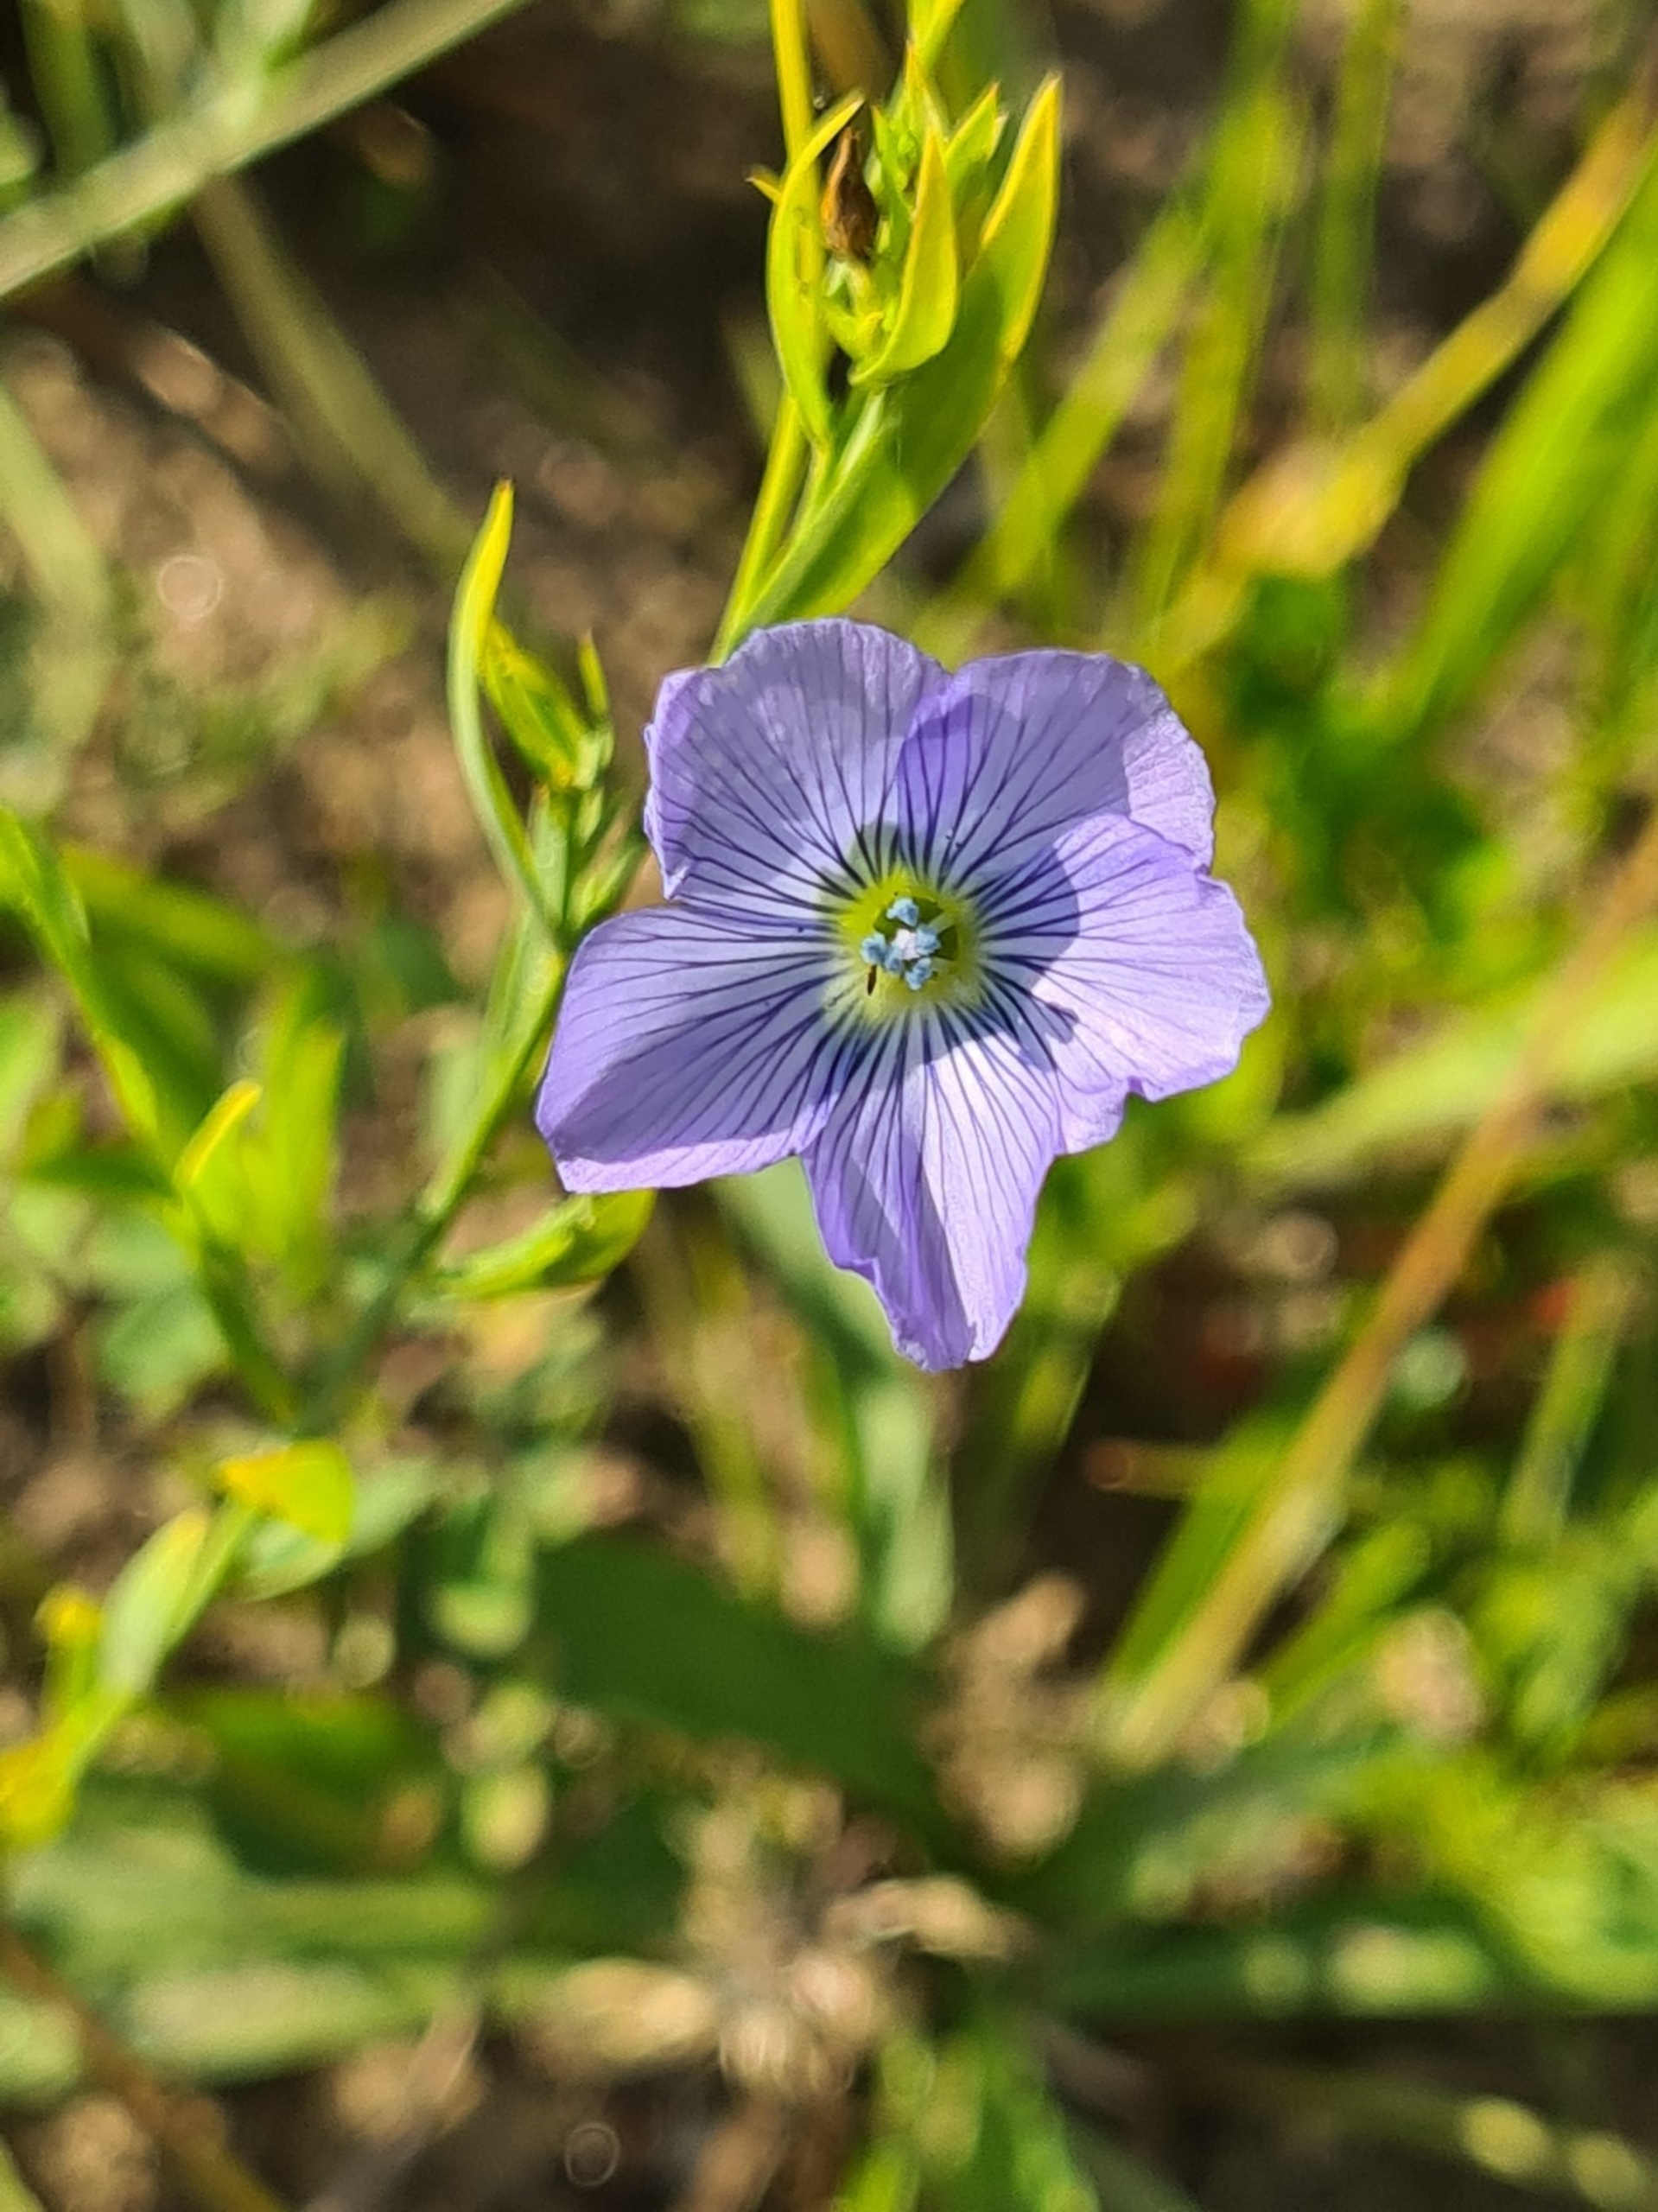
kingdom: Plantae
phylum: Tracheophyta
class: Magnoliopsida
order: Malpighiales
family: Linaceae
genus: Linum
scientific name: Linum usitatissimum
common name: Almindelig hør
